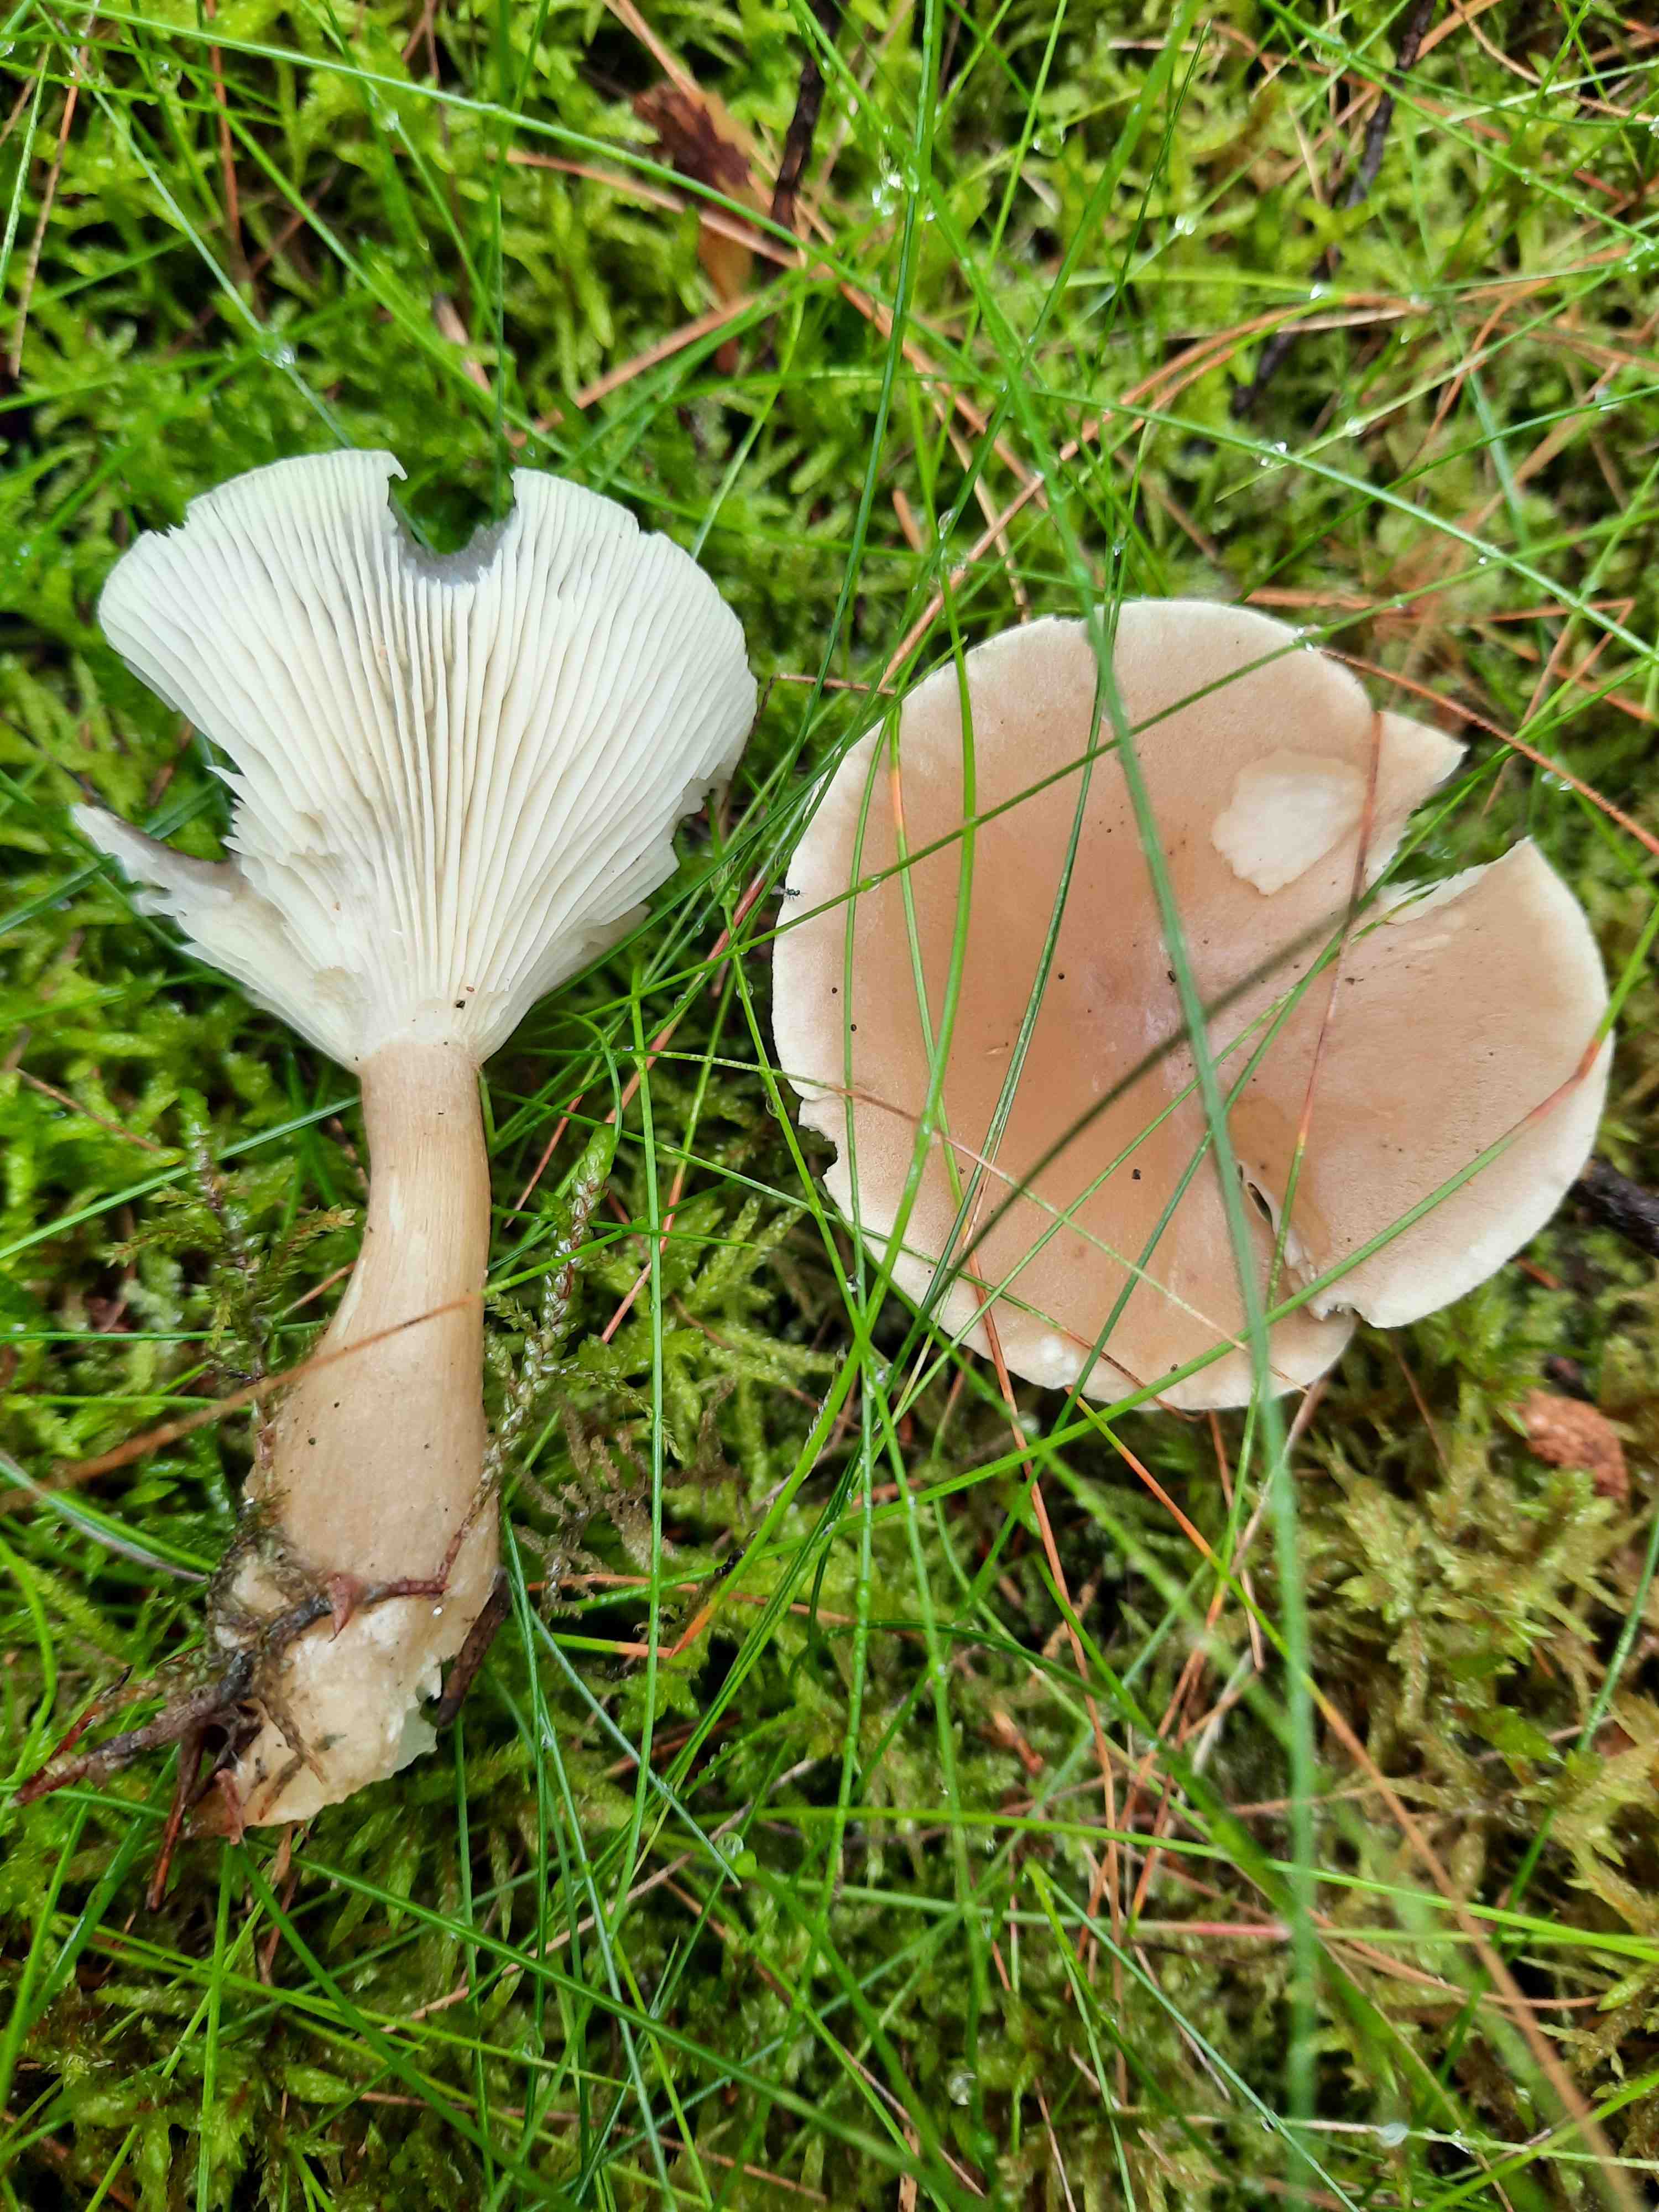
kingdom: Fungi
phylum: Basidiomycota
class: Agaricomycetes
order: Agaricales
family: Hygrophoraceae
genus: Ampulloclitocybe
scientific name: Ampulloclitocybe clavipes
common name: køllefod
